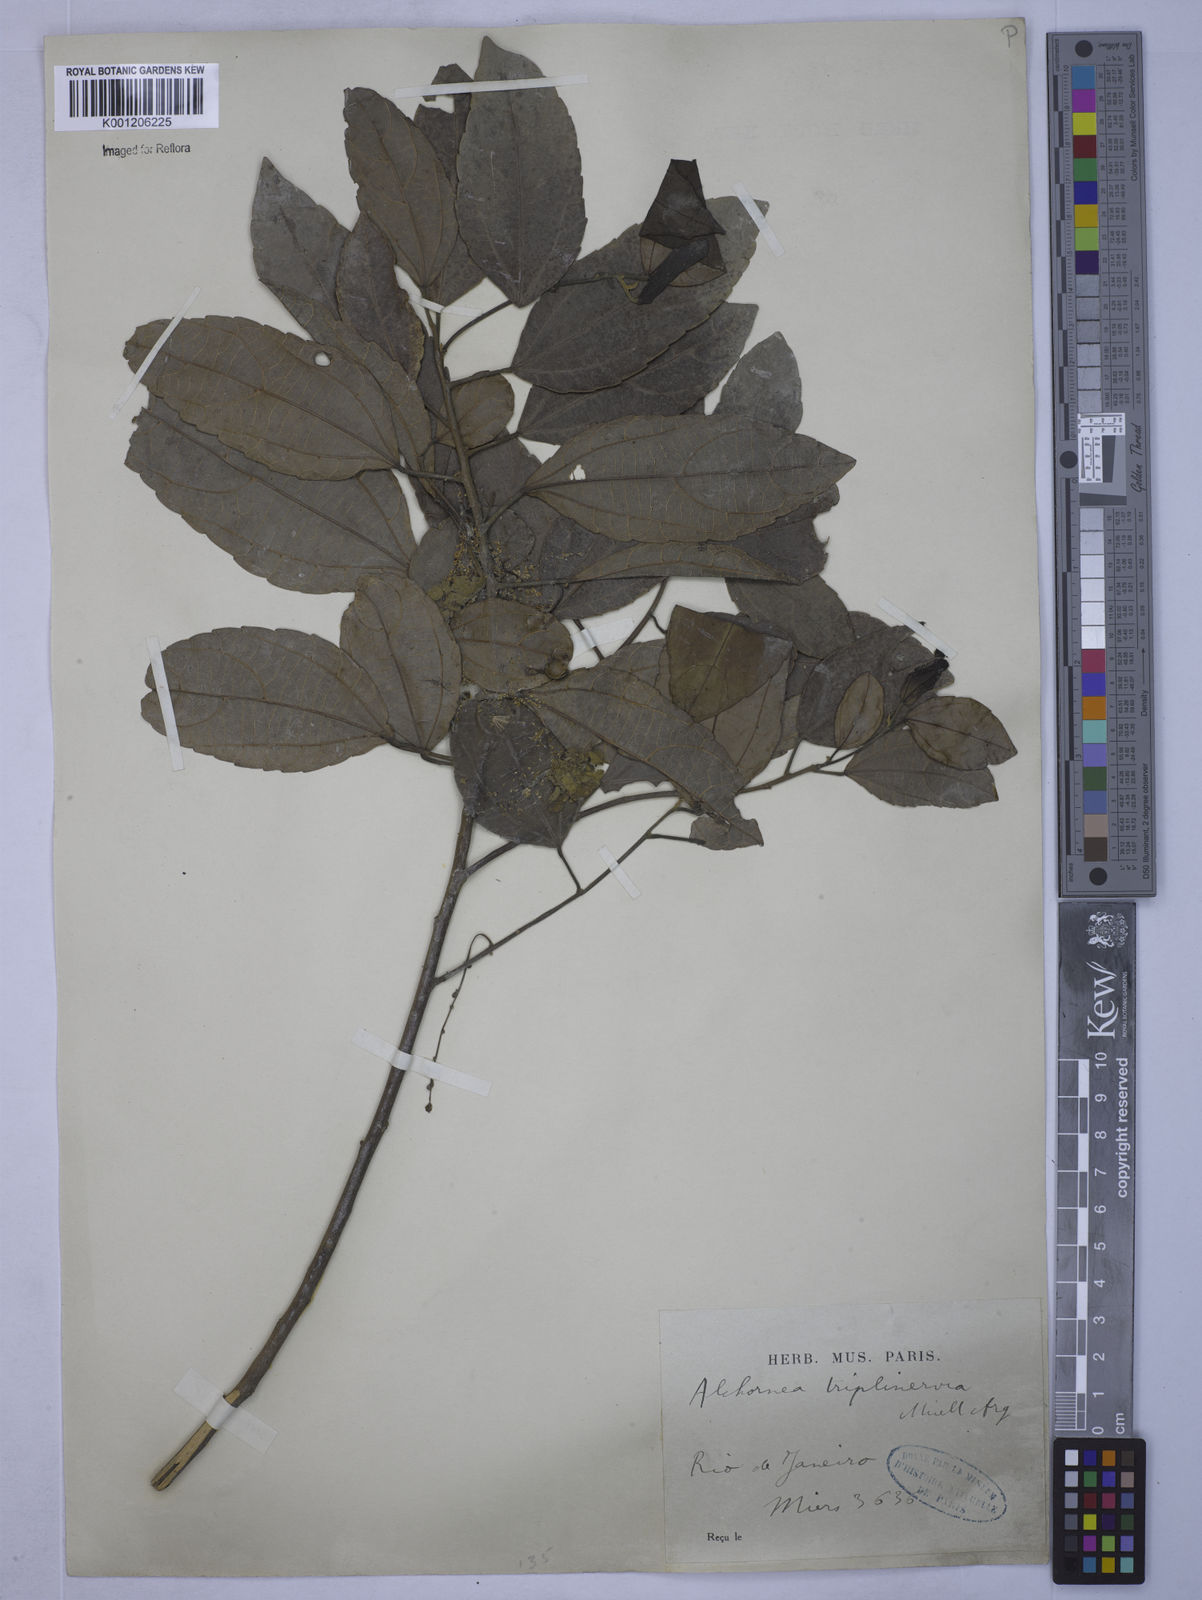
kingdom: Plantae
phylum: Tracheophyta
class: Magnoliopsida
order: Malpighiales
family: Euphorbiaceae
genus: Alchornea
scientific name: Alchornea
